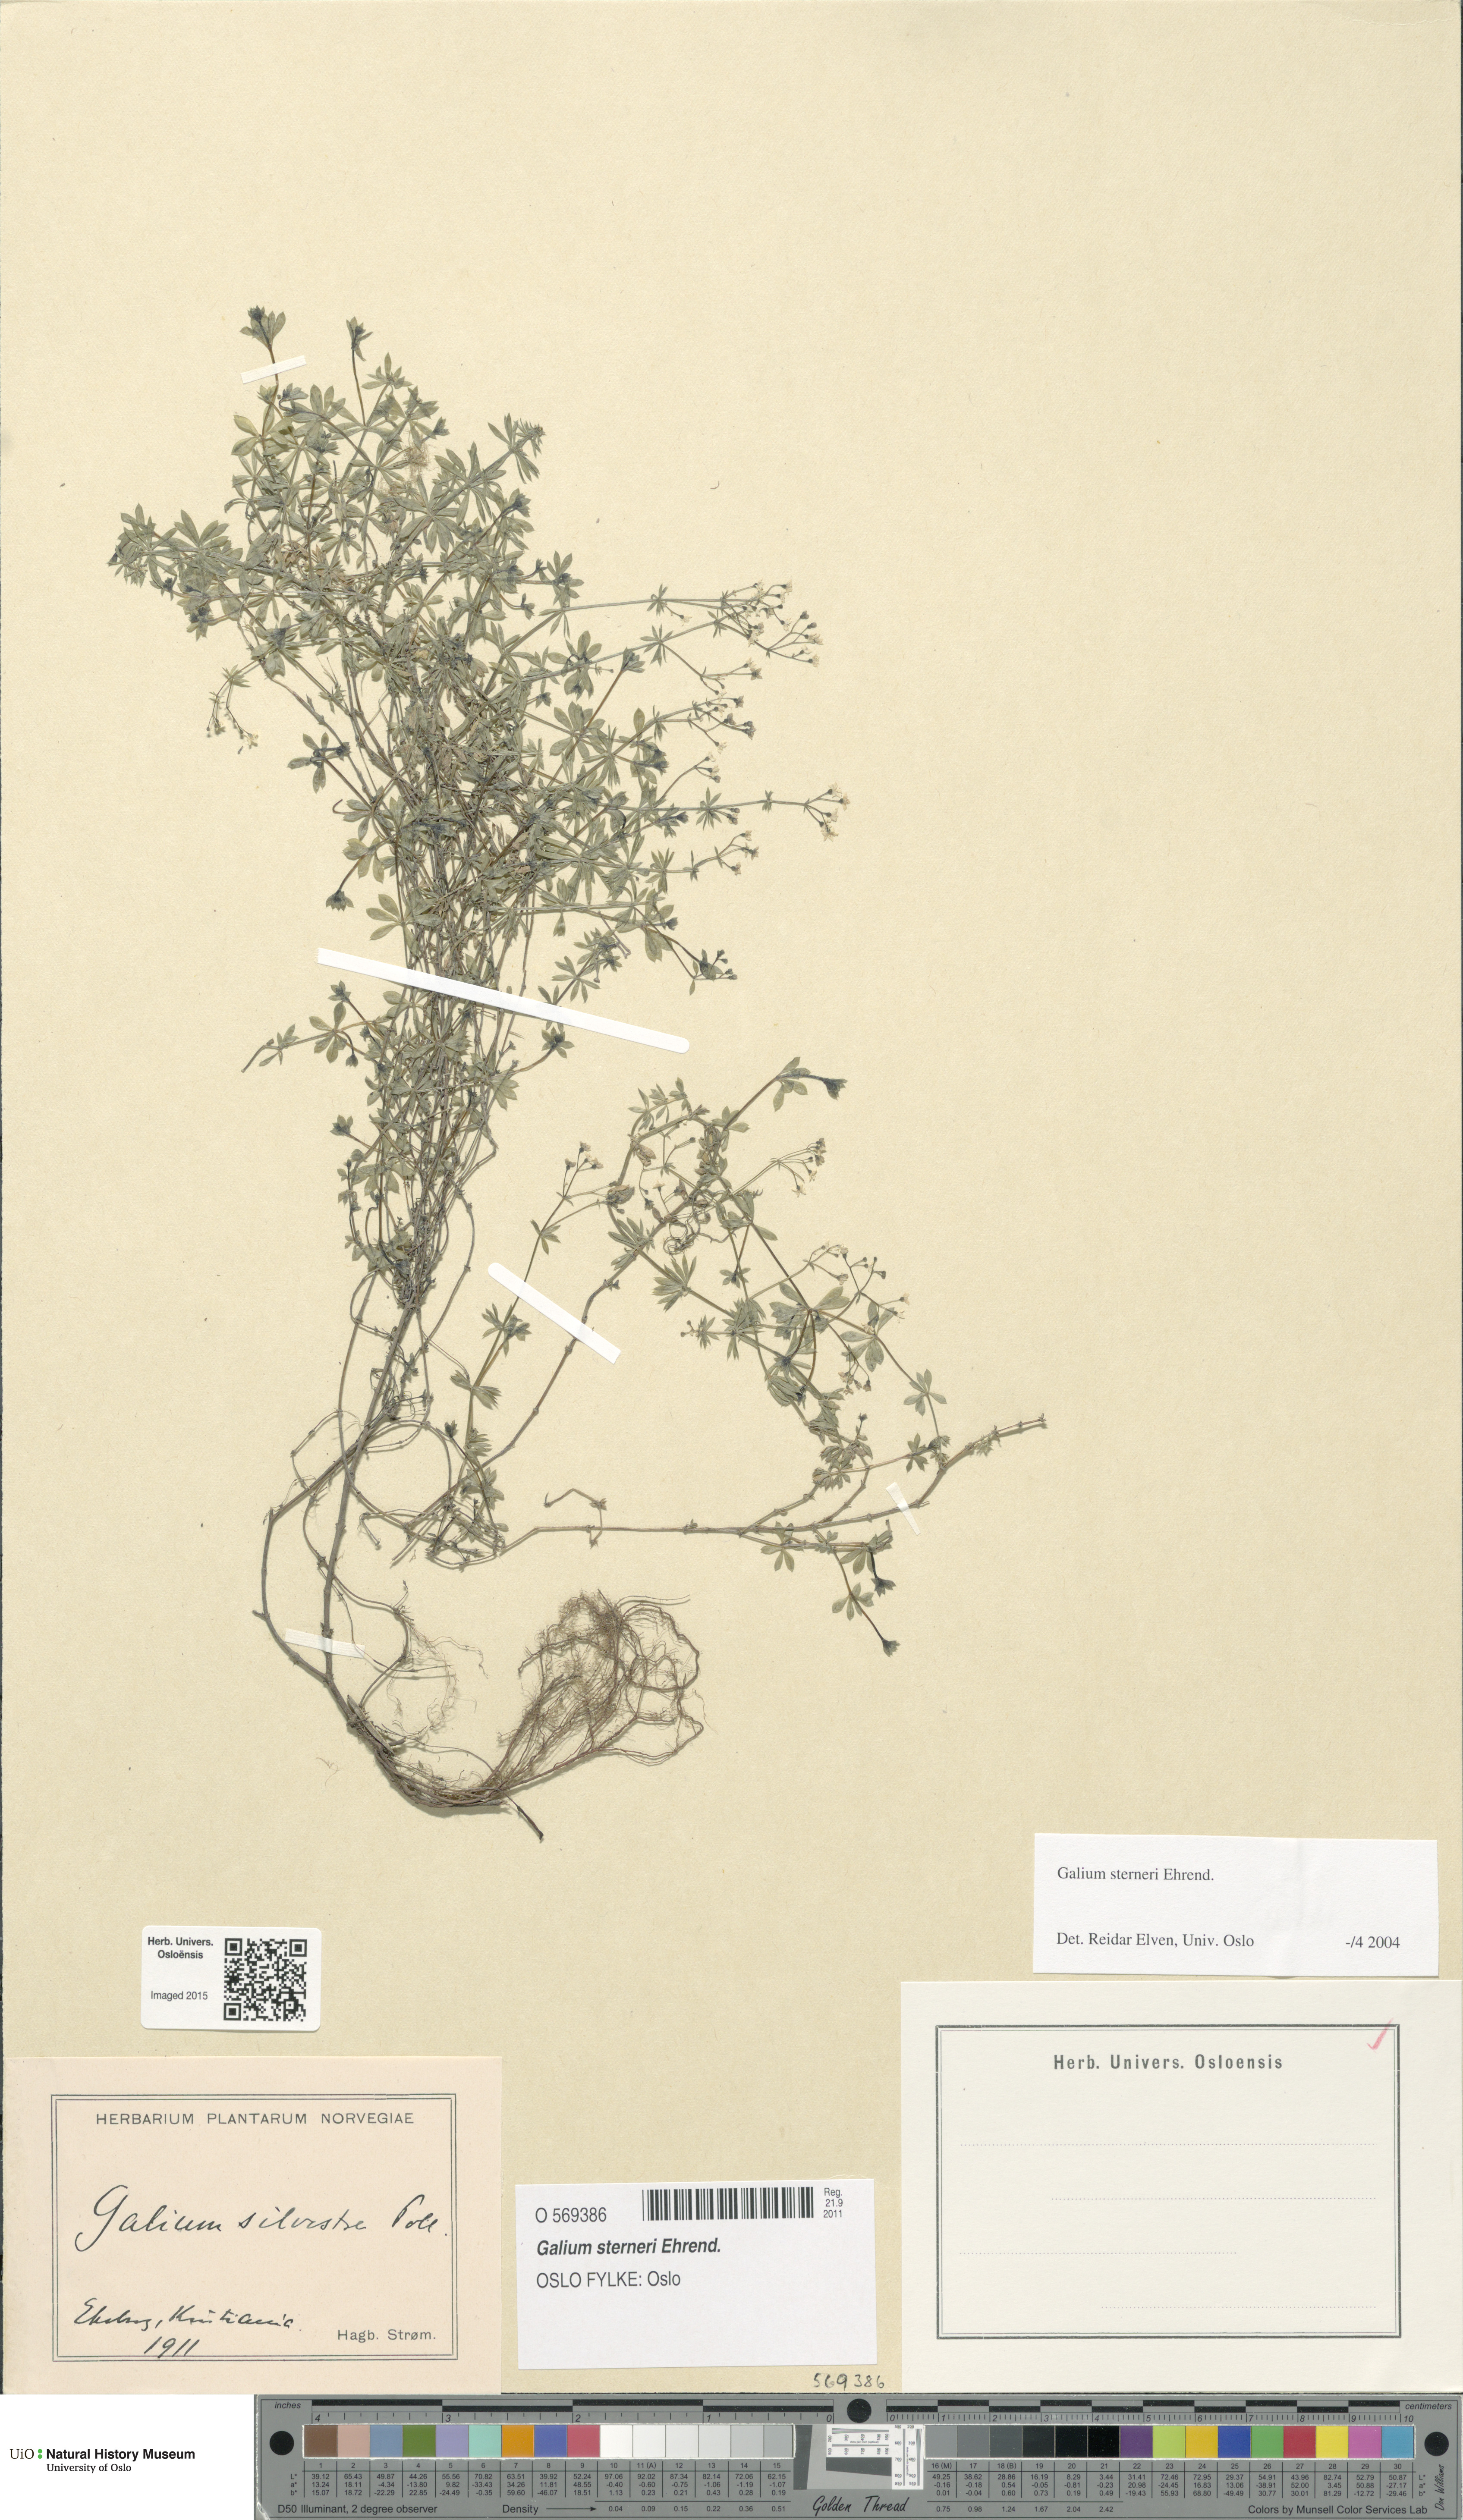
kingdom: Plantae
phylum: Tracheophyta
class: Magnoliopsida
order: Gentianales
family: Rubiaceae
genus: Galium
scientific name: Galium sterneri
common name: Limestone bedstraw
